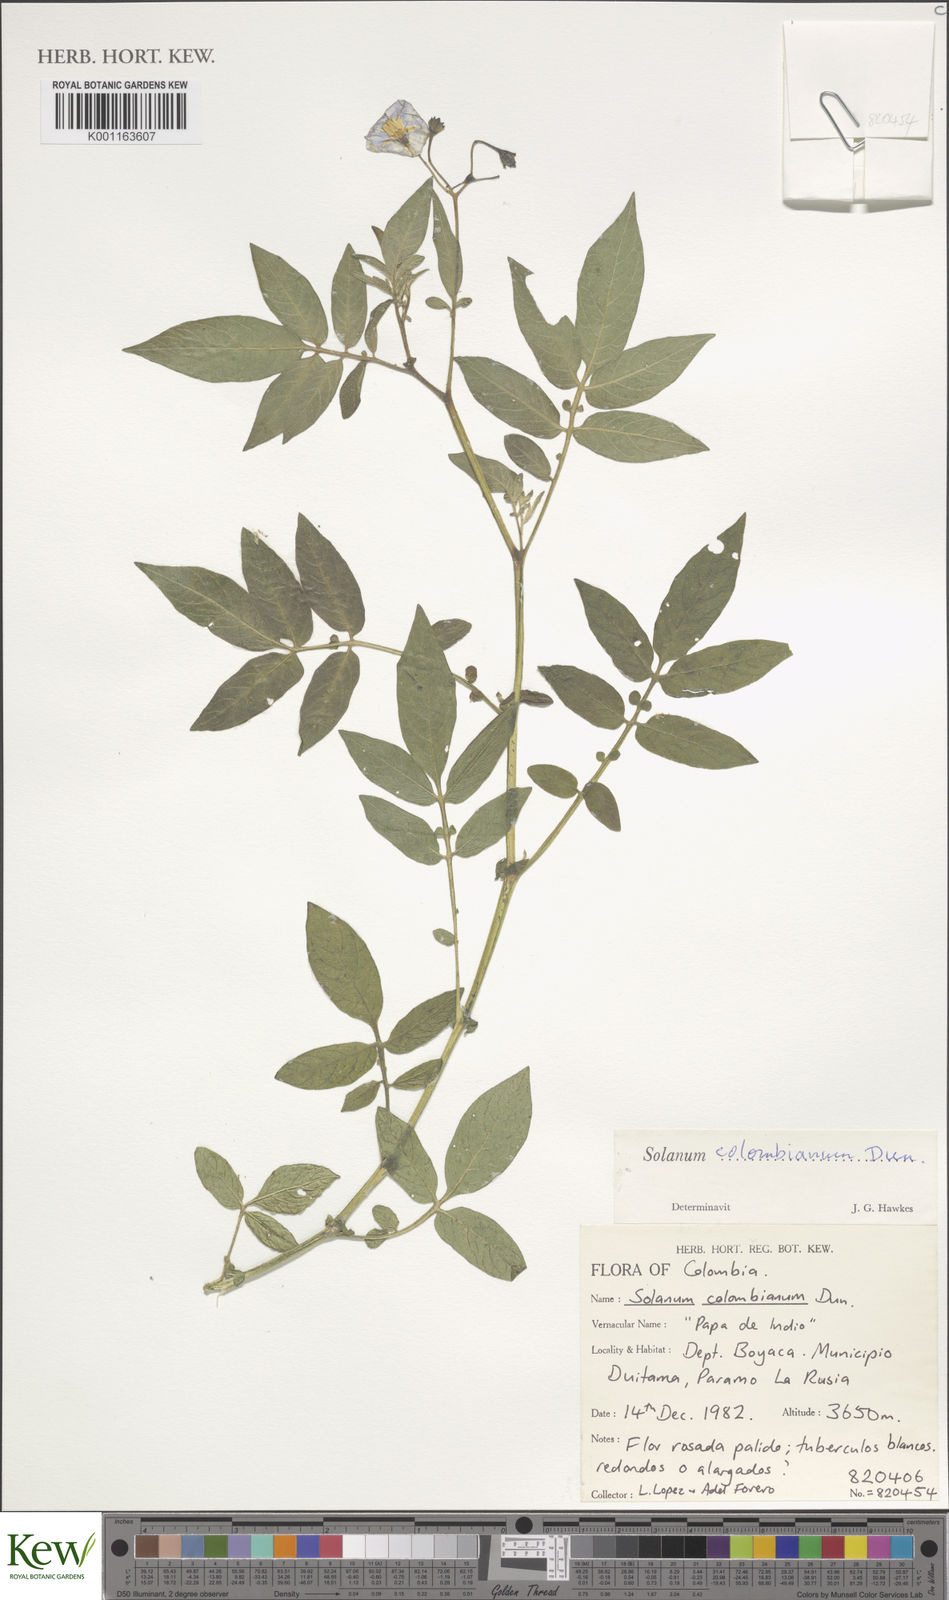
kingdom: Plantae
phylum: Tracheophyta
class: Magnoliopsida
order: Solanales
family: Solanaceae
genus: Solanum
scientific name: Solanum colombianum
